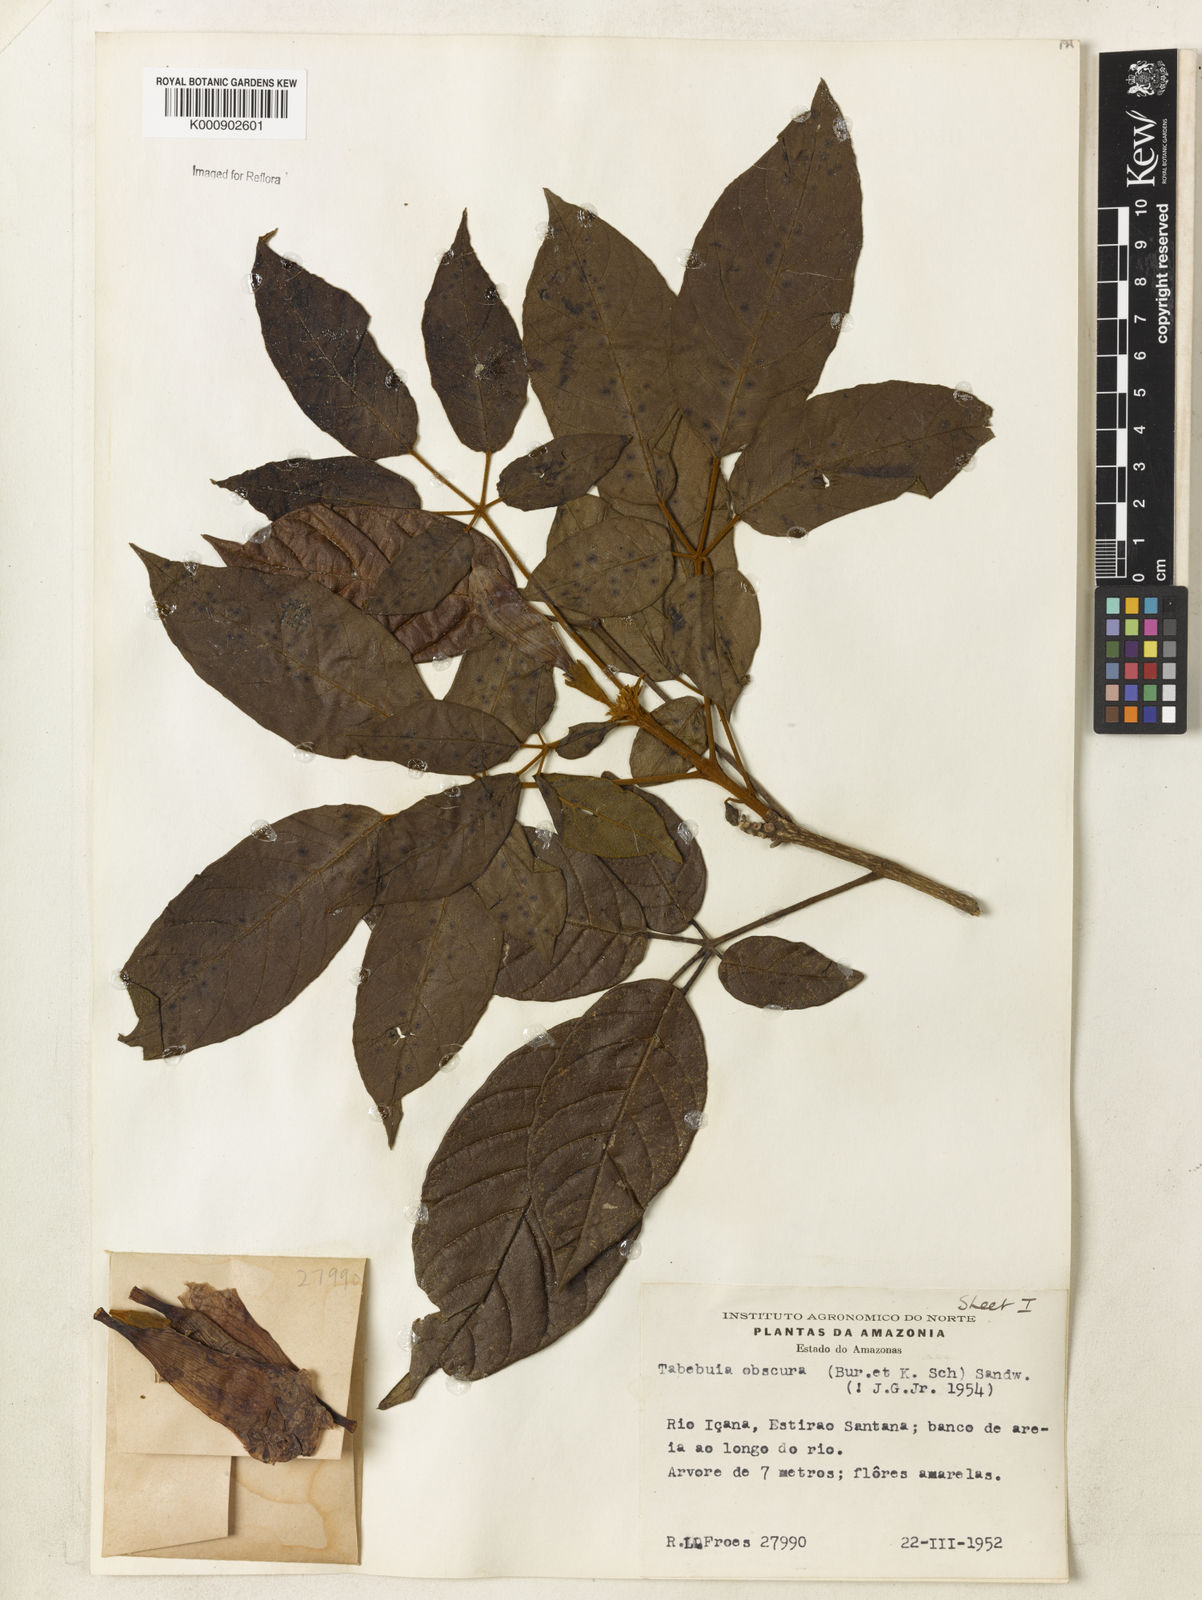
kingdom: Plantae
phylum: Tracheophyta
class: Magnoliopsida
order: Lamiales
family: Bignoniaceae
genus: Handroanthus
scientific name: Handroanthus obscurus
